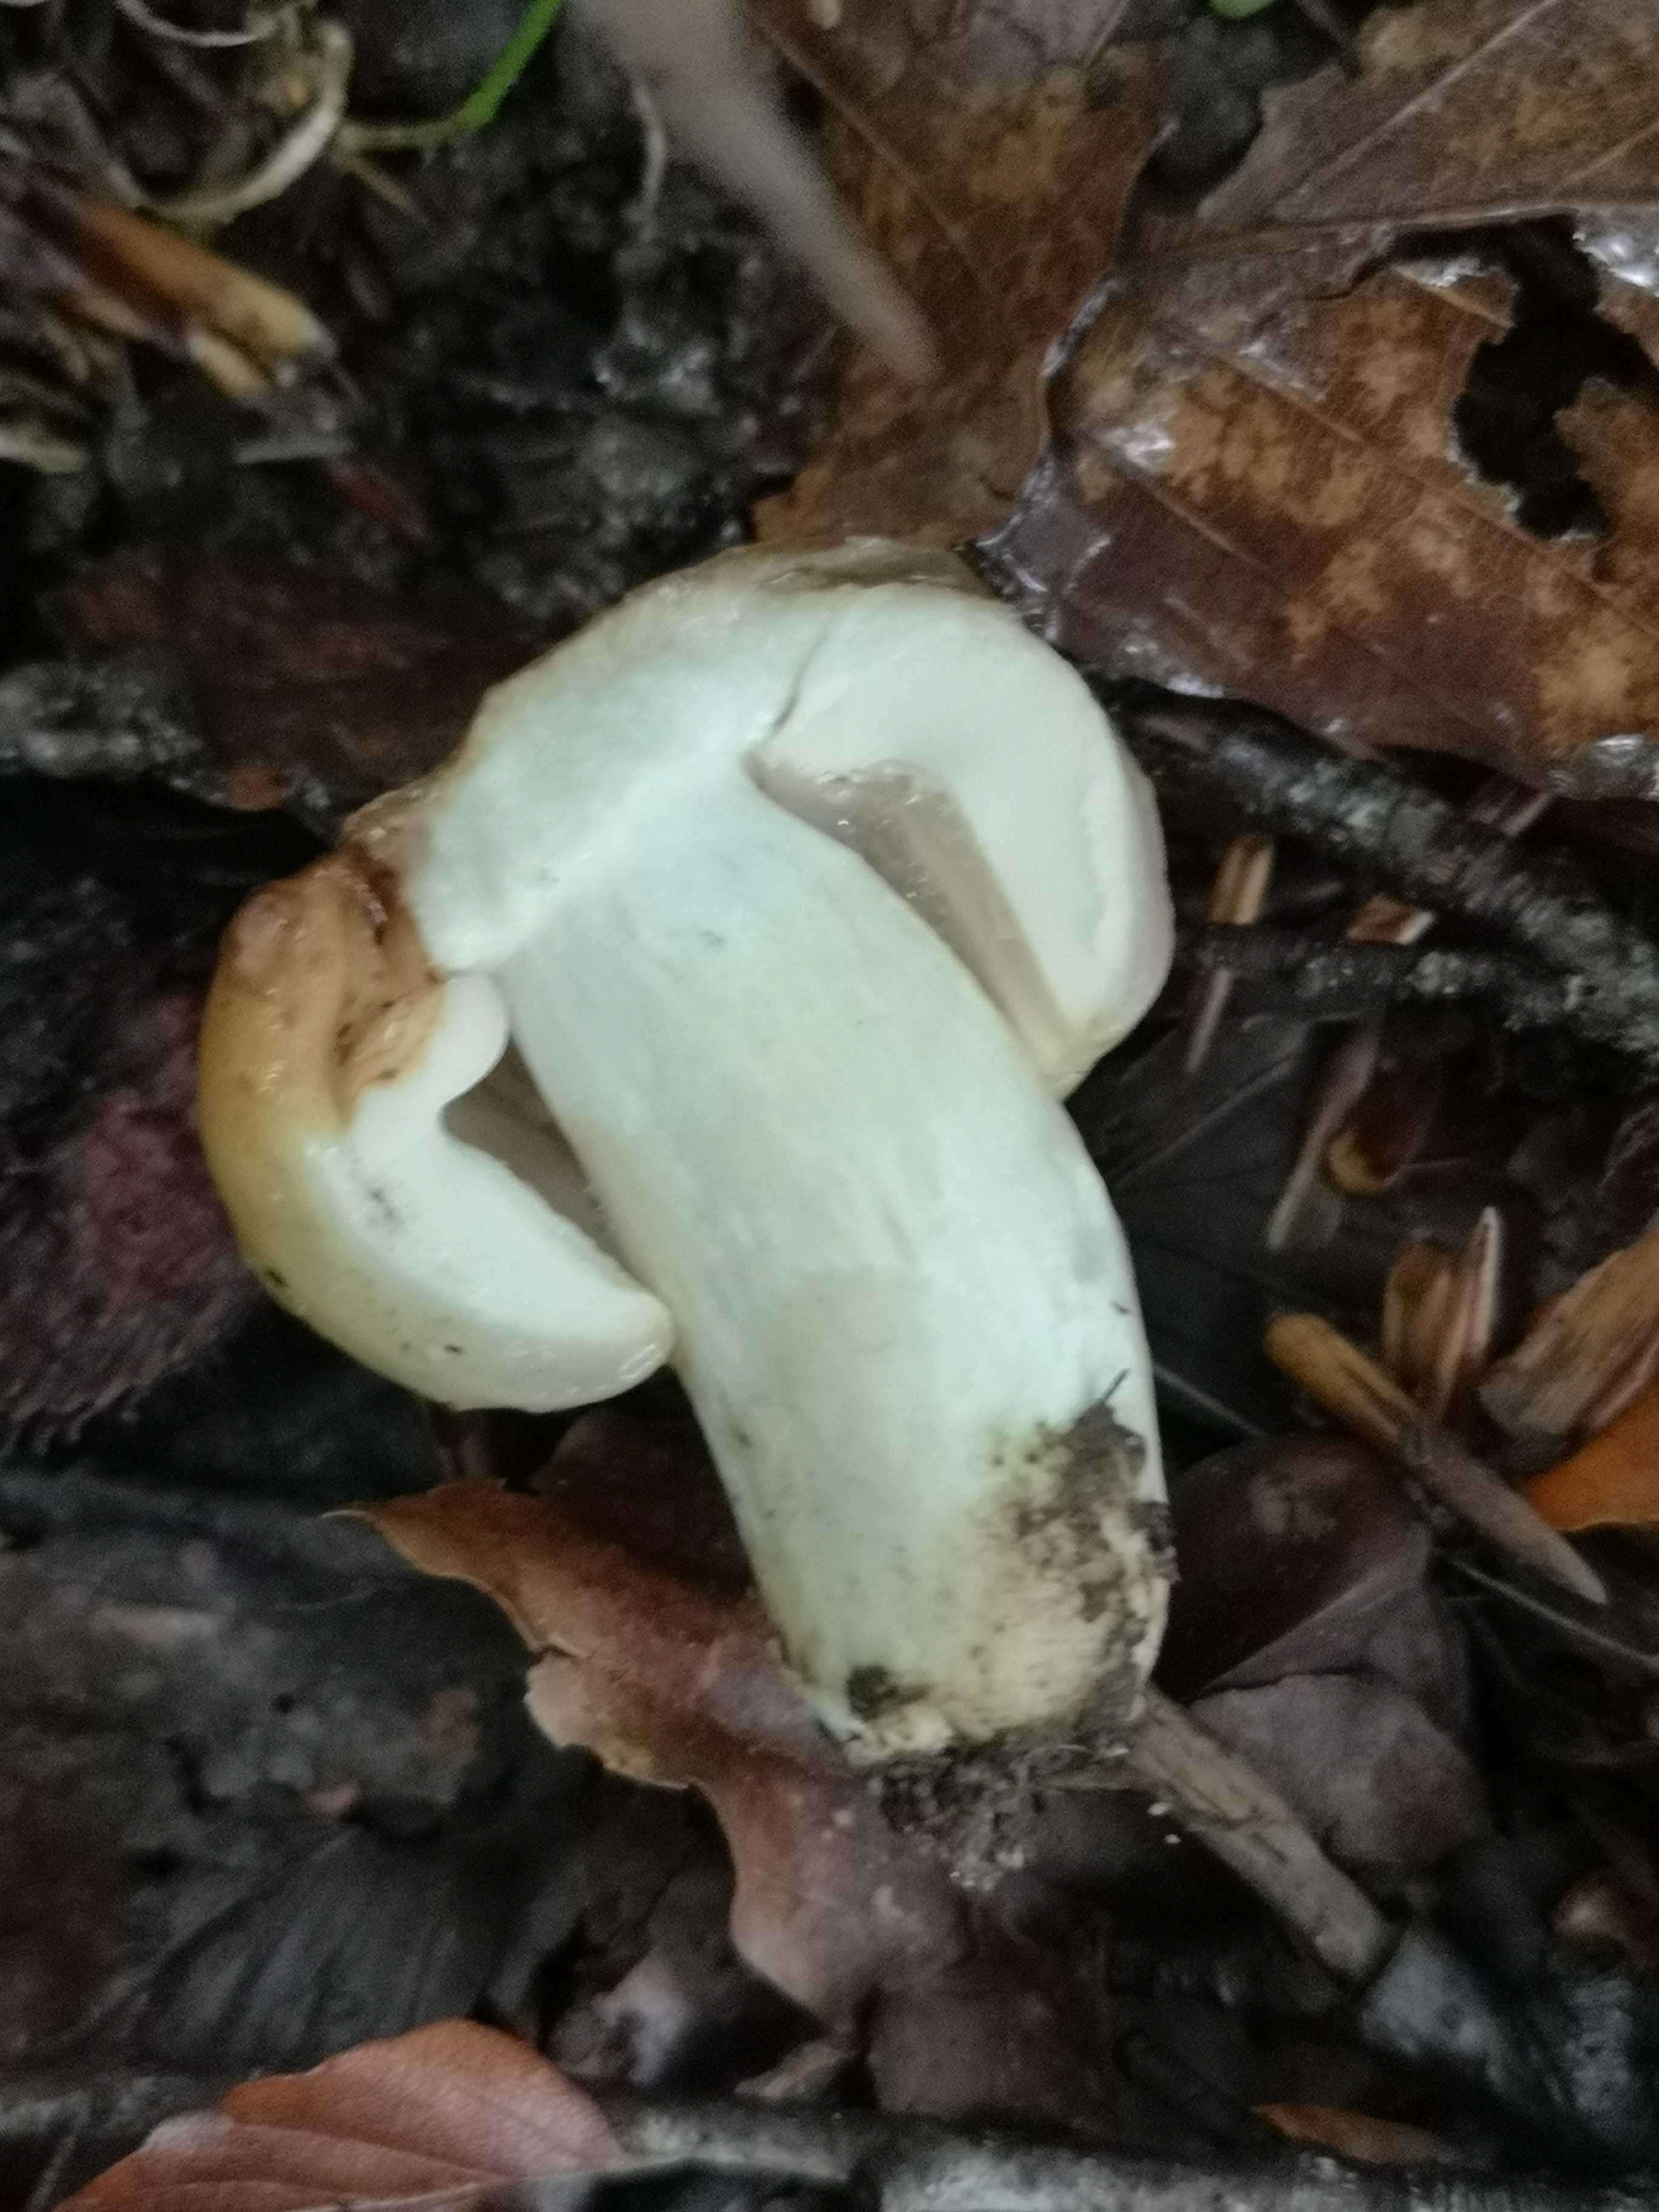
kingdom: Fungi
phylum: Basidiomycota
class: Agaricomycetes
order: Russulales
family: Russulaceae
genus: Russula
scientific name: Russula foetens
